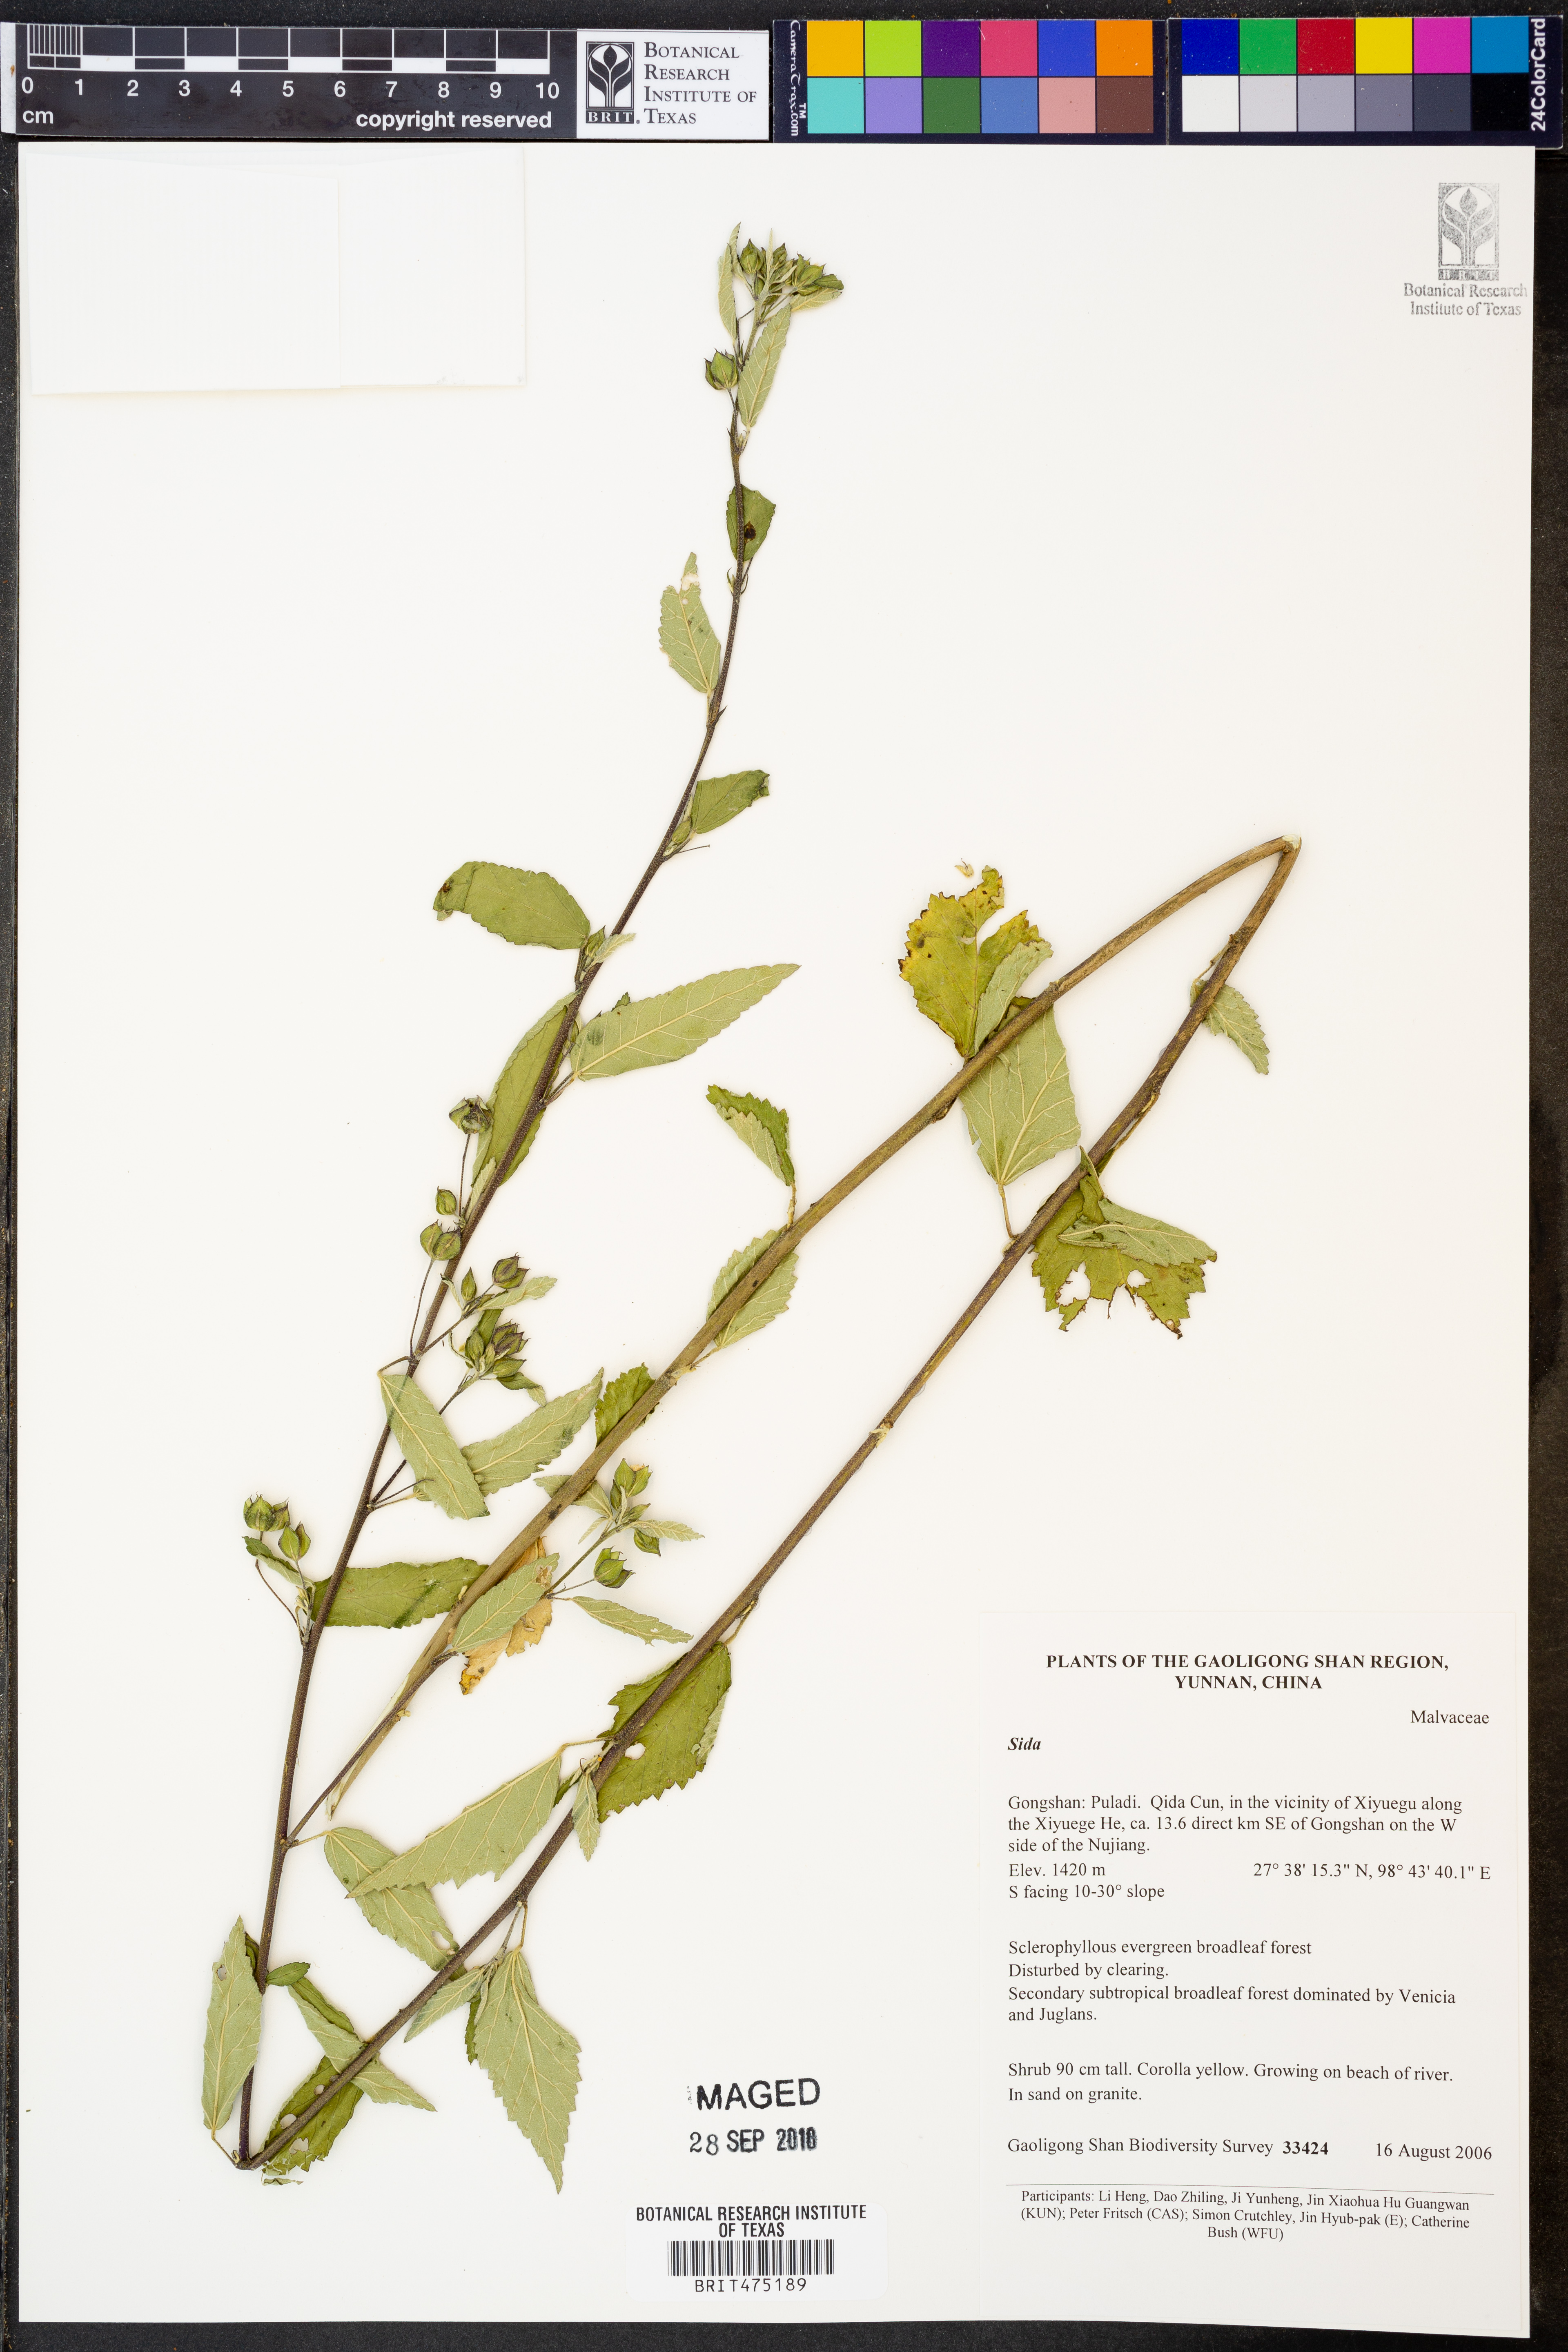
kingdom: Plantae
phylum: Tracheophyta
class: Magnoliopsida
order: Malvales
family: Malvaceae
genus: Sida
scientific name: Sida
